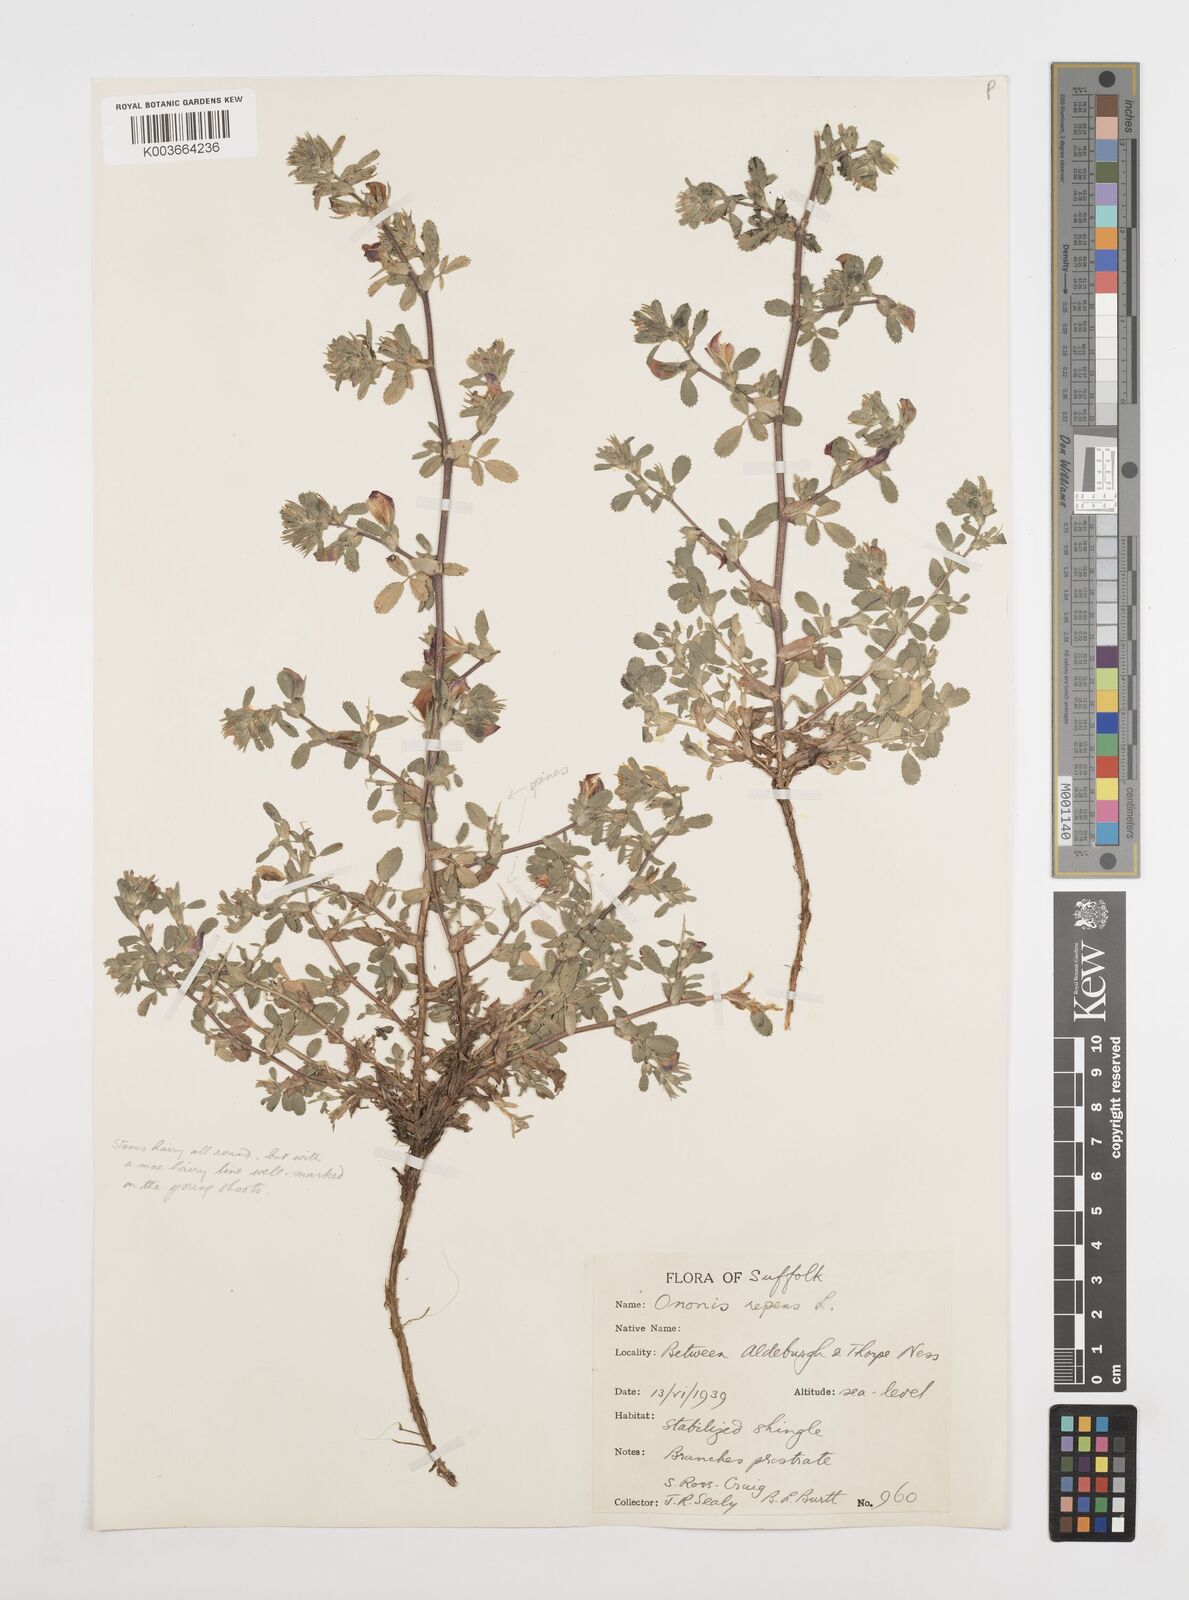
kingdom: Plantae
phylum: Tracheophyta
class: Magnoliopsida
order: Fabales
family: Fabaceae
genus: Ononis
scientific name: Ononis spinosa
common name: Spiny restharrow
